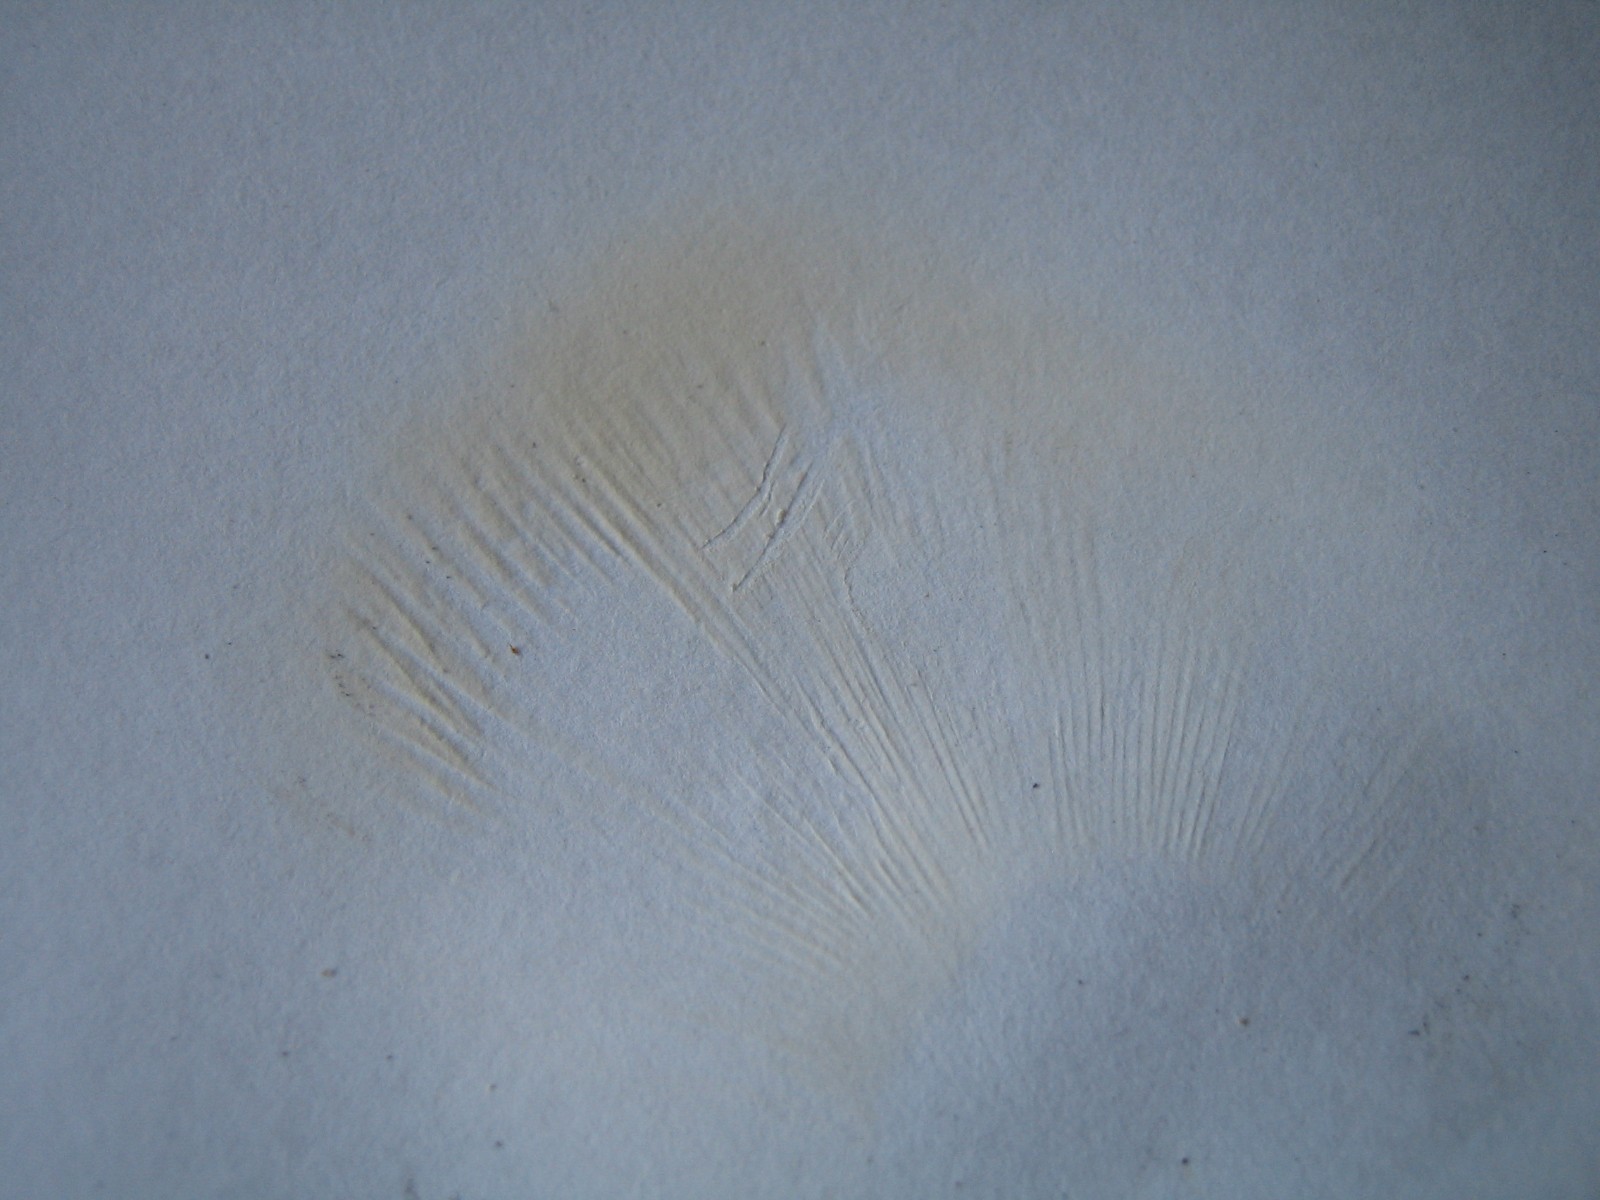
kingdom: Fungi
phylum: Basidiomycota
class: Agaricomycetes
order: Russulales
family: Russulaceae
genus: Russula
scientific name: Russula
